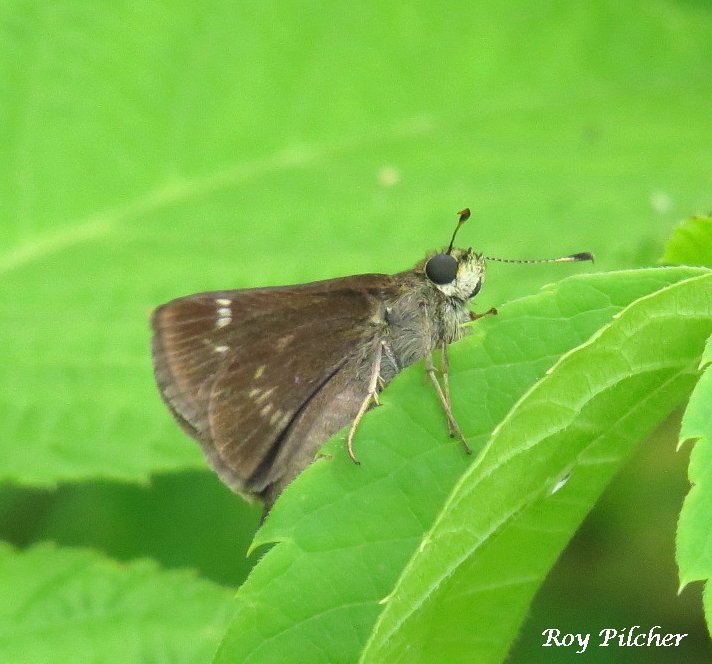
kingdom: Animalia
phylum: Arthropoda
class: Insecta
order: Lepidoptera
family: Hesperiidae
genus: Vernia
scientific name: Vernia verna
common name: Little Glassywing
